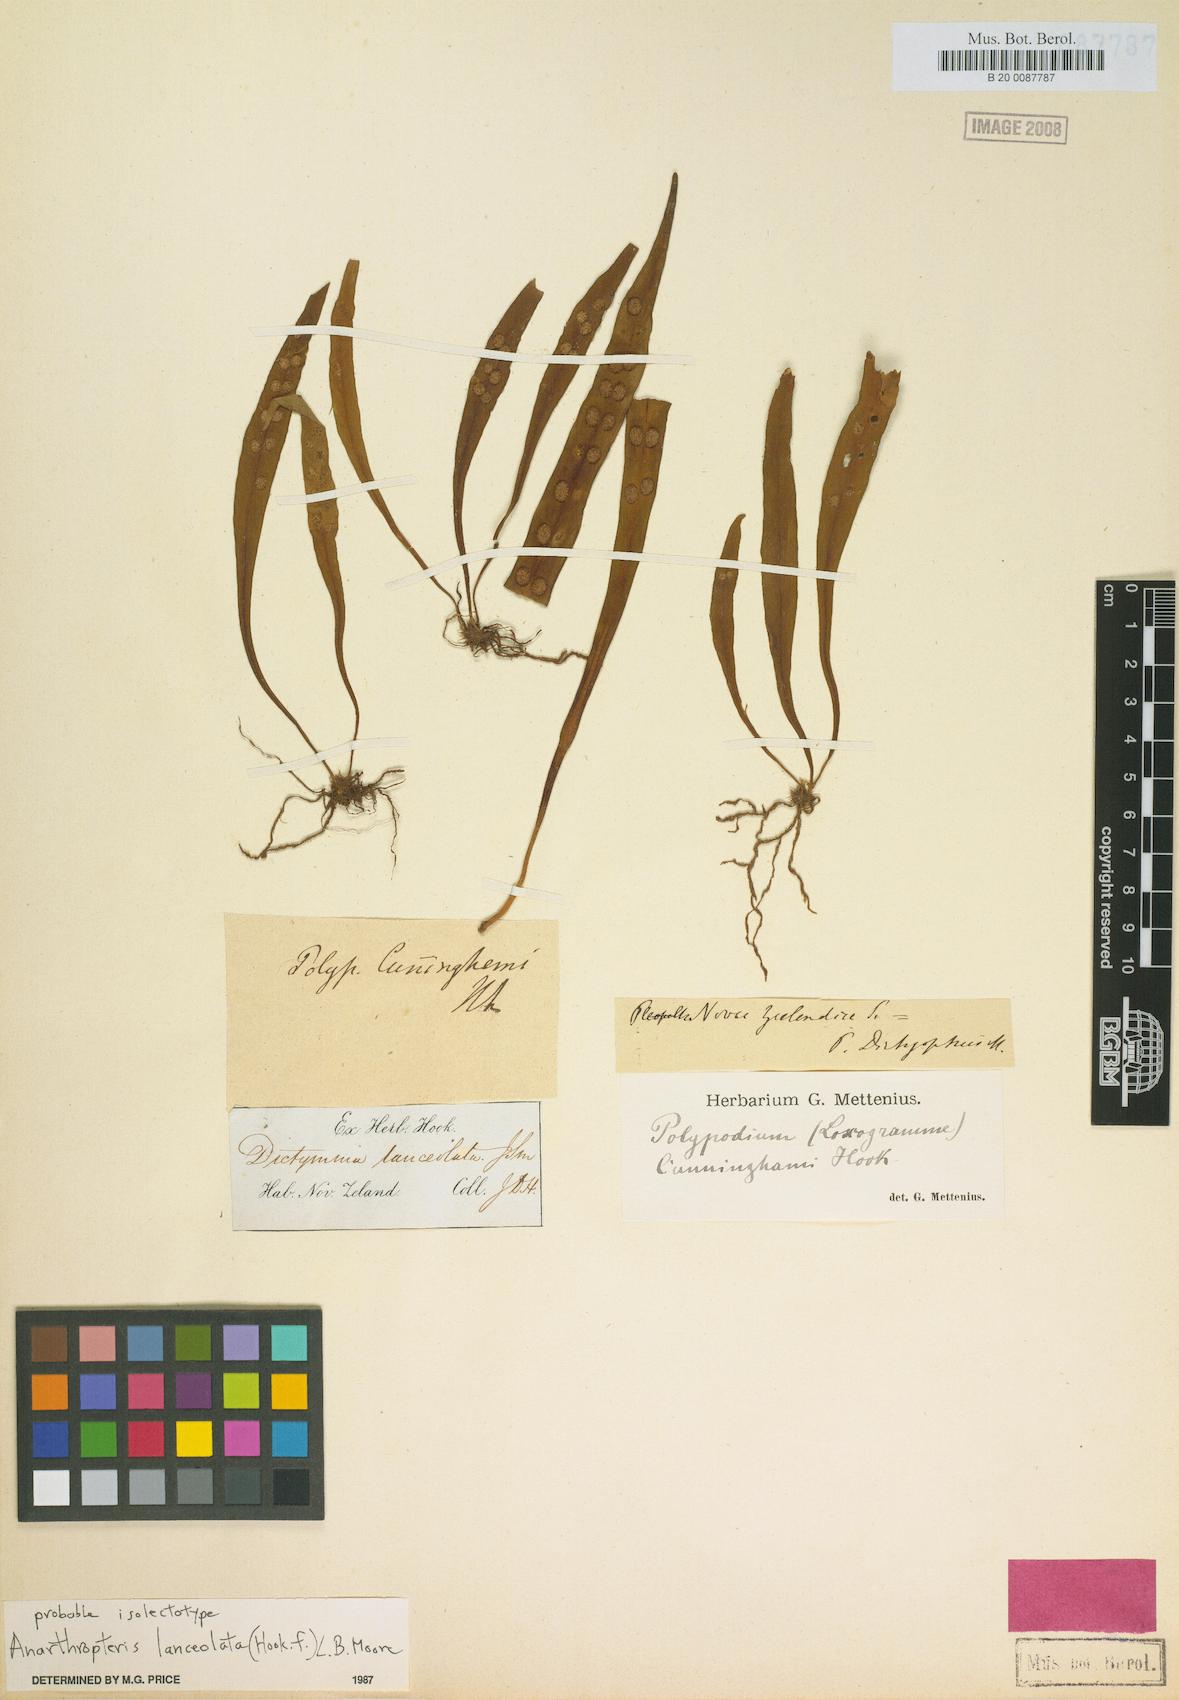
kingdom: Plantae
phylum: Tracheophyta
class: Polypodiopsida
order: Polypodiales
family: Polypodiaceae
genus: Loxogramme
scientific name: Loxogramme dictyopteris
